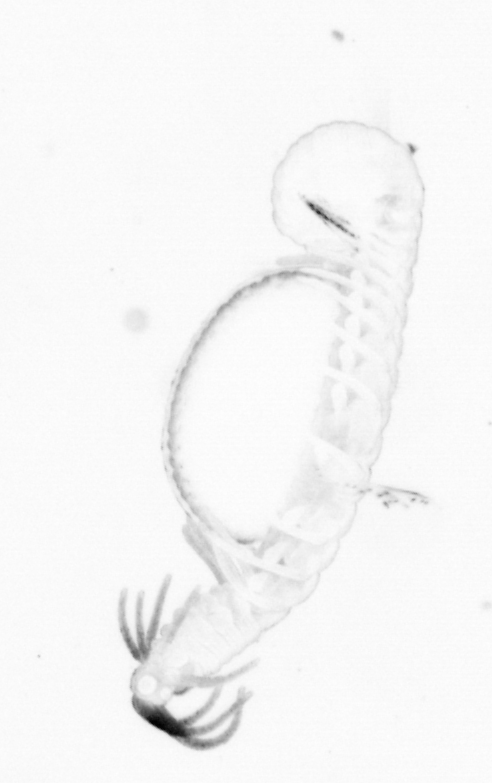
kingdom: Animalia
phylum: Annelida
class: Polychaeta
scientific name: Polychaeta
